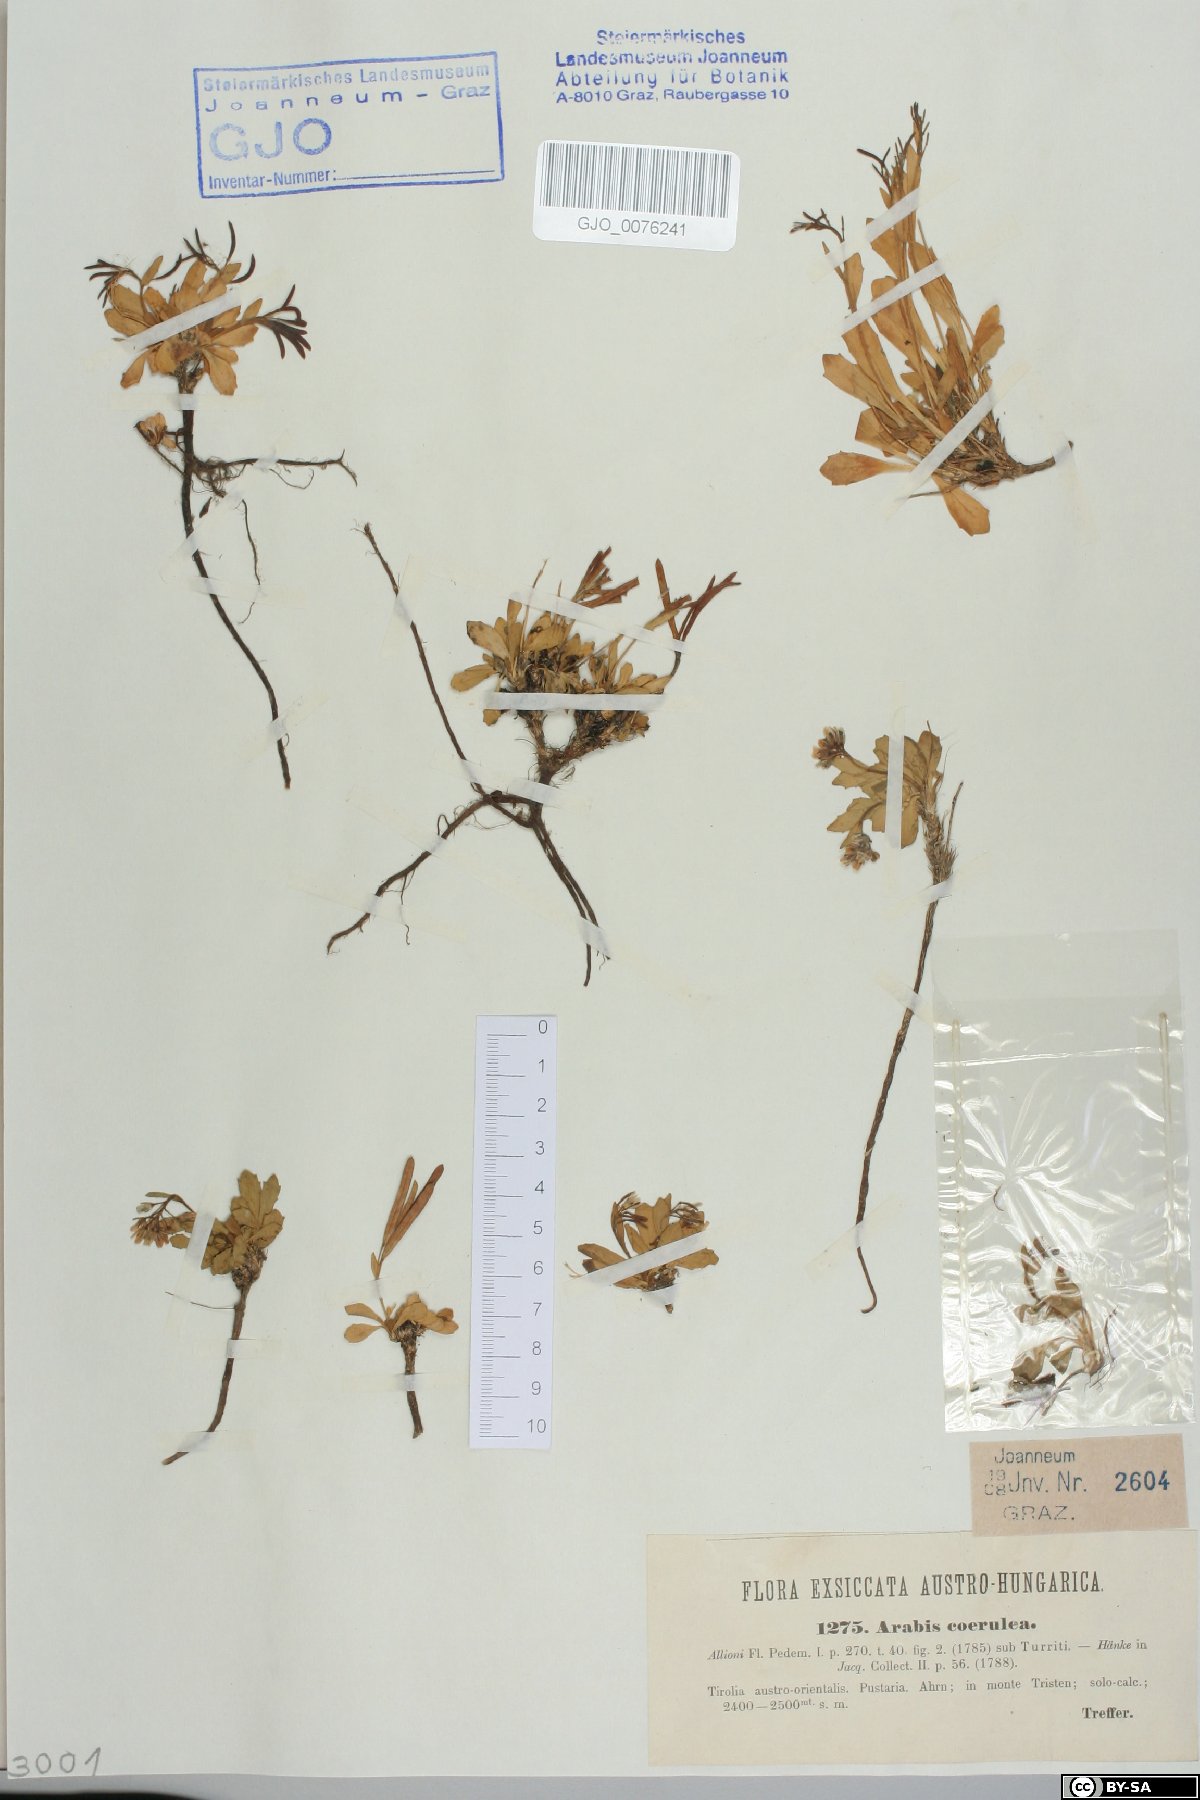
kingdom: Plantae
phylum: Tracheophyta
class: Magnoliopsida
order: Brassicales
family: Brassicaceae
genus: Arabis
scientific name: Arabis caerulea
